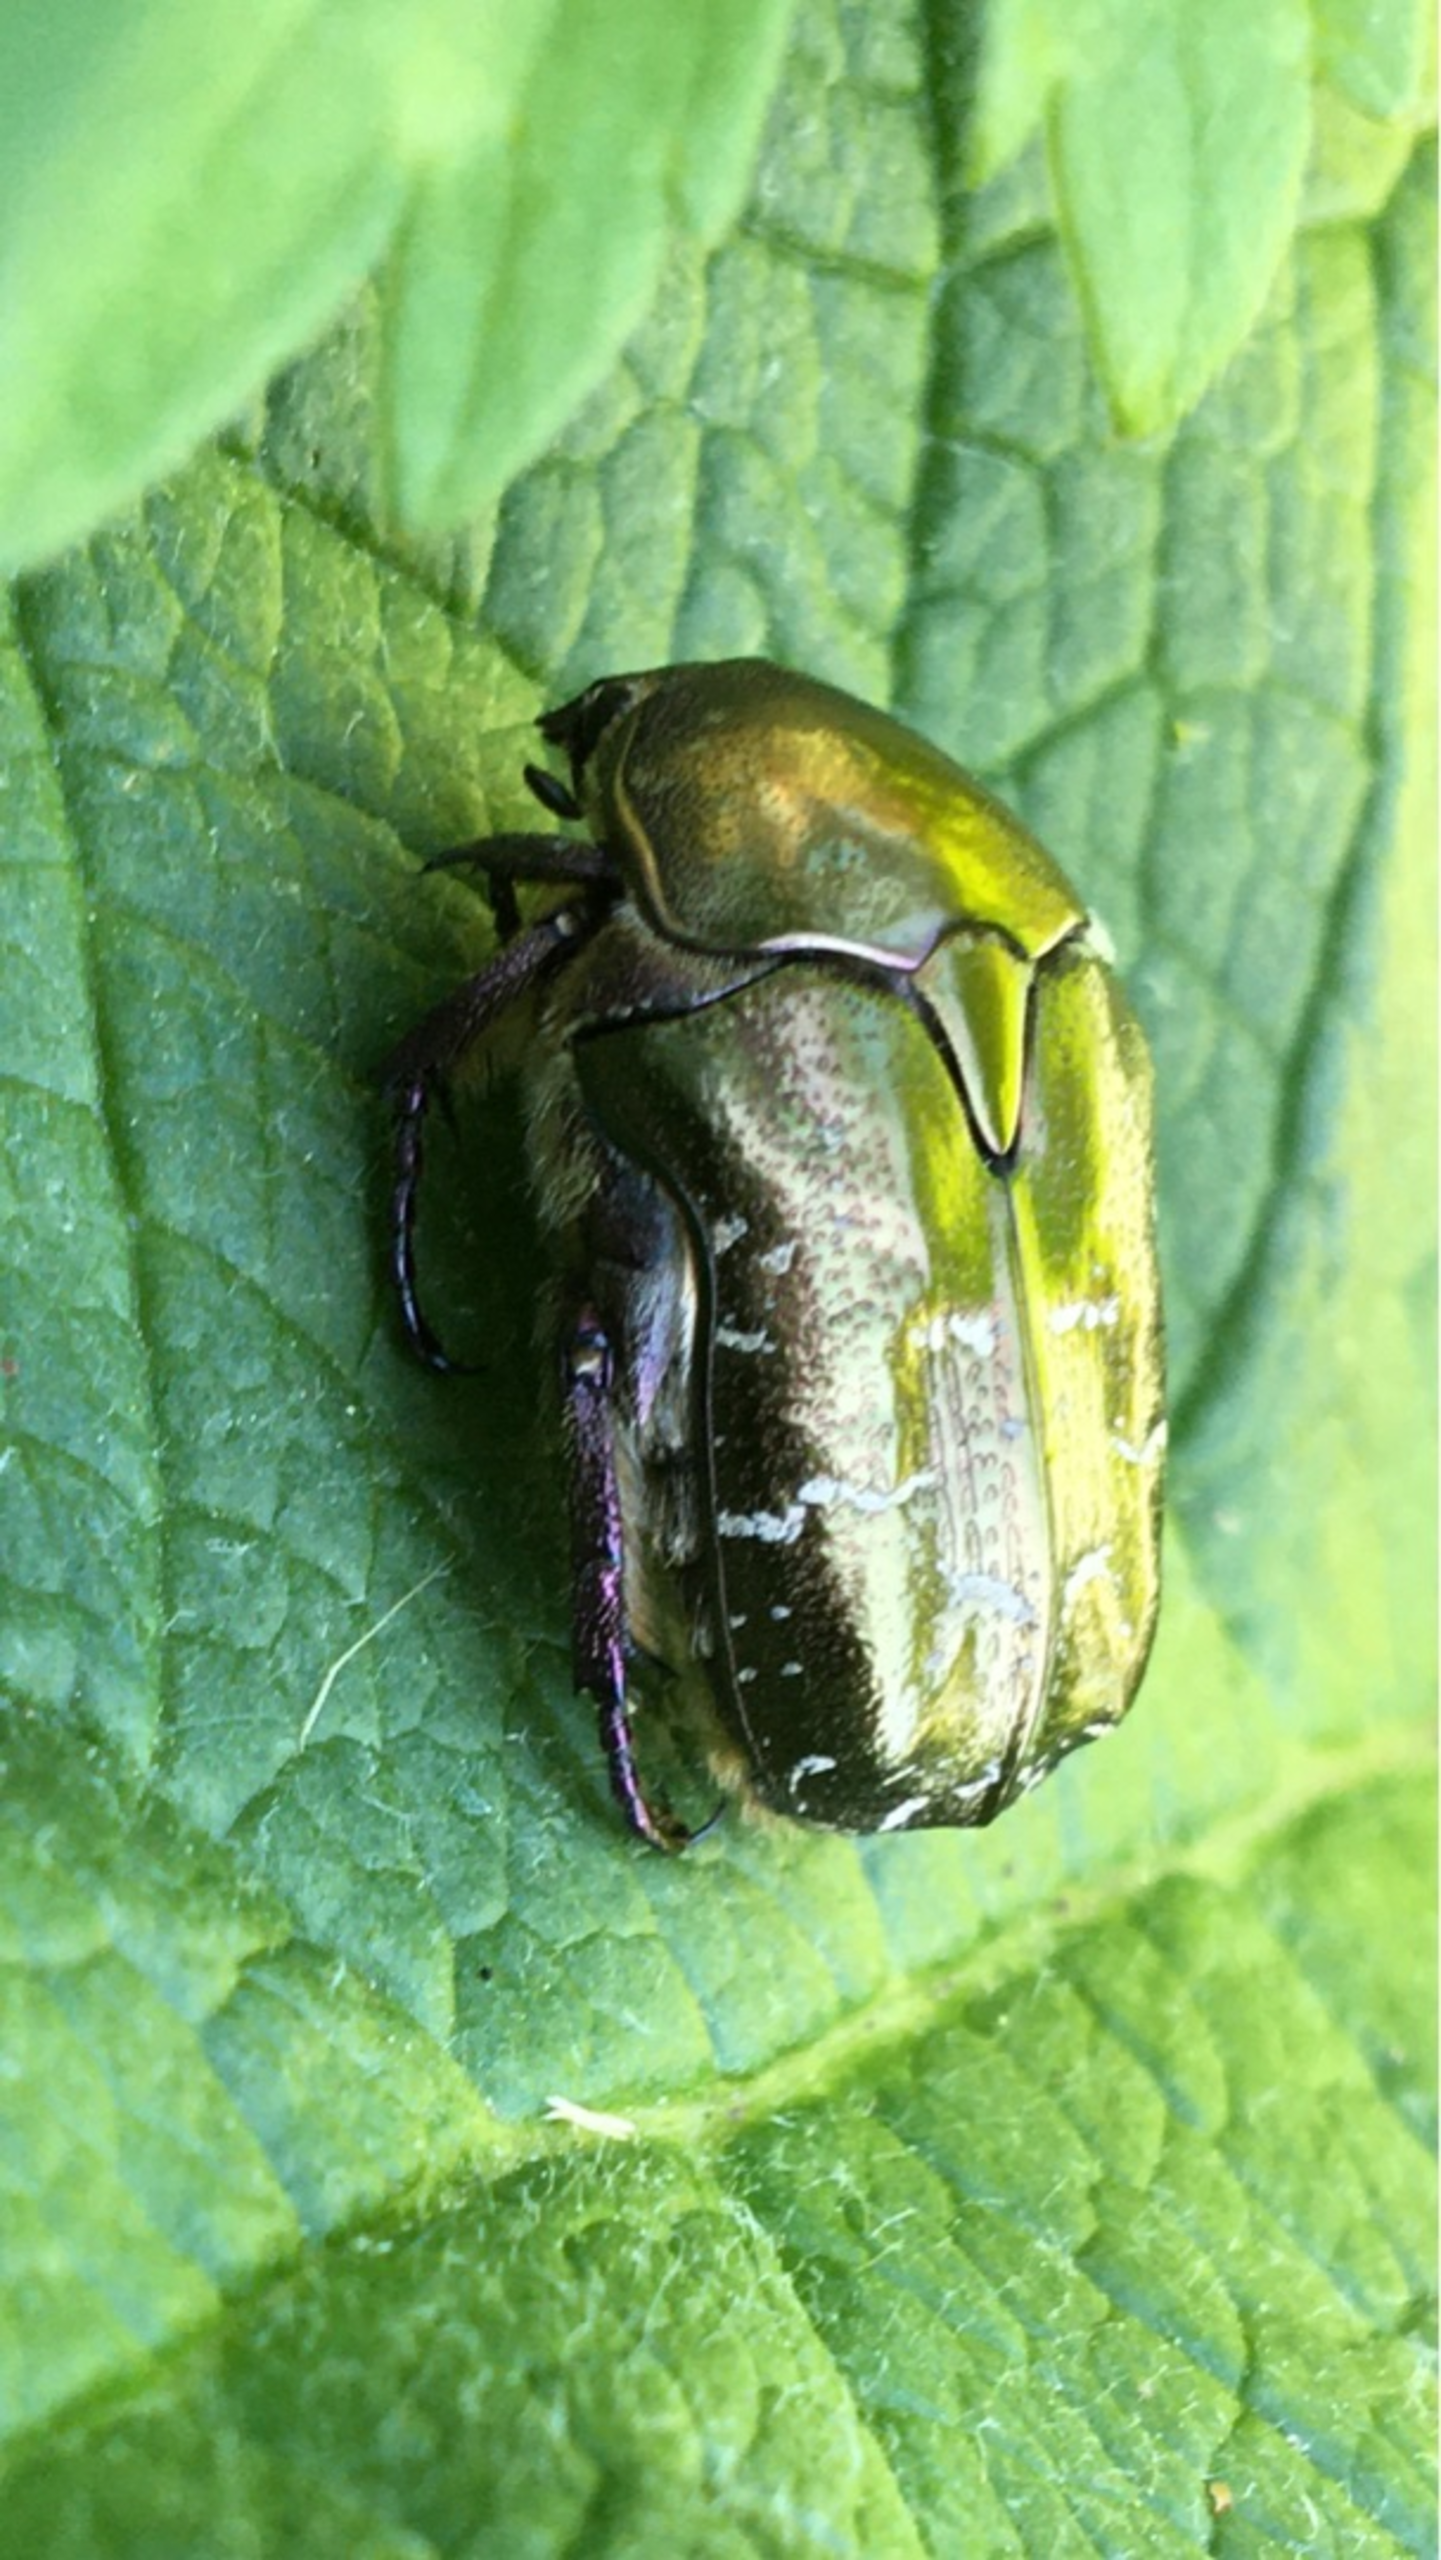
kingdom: Animalia
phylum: Arthropoda
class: Insecta
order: Coleoptera
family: Scarabaeidae
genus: Protaetia
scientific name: Protaetia cuprea
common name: Kobberguldbasse
